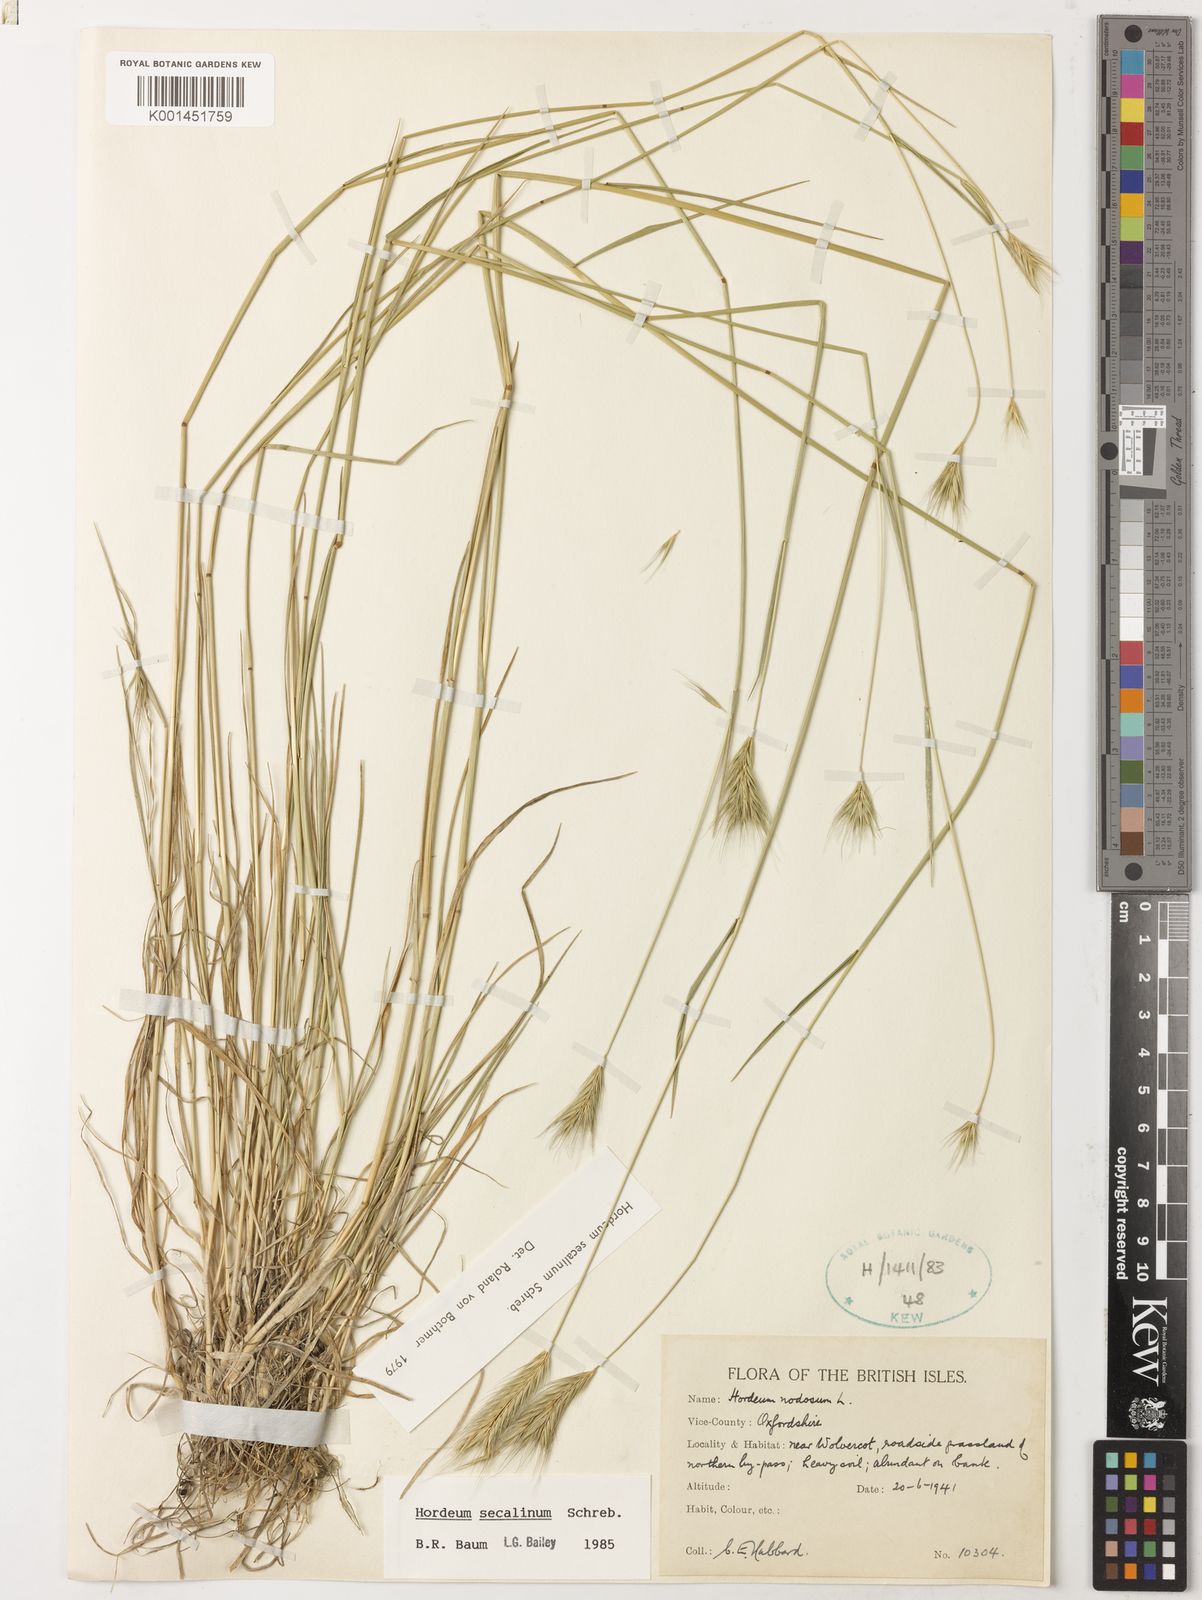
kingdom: Plantae
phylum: Tracheophyta
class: Liliopsida
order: Poales
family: Poaceae
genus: Hordeum
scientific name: Hordeum secalinum
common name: Meadow barley
